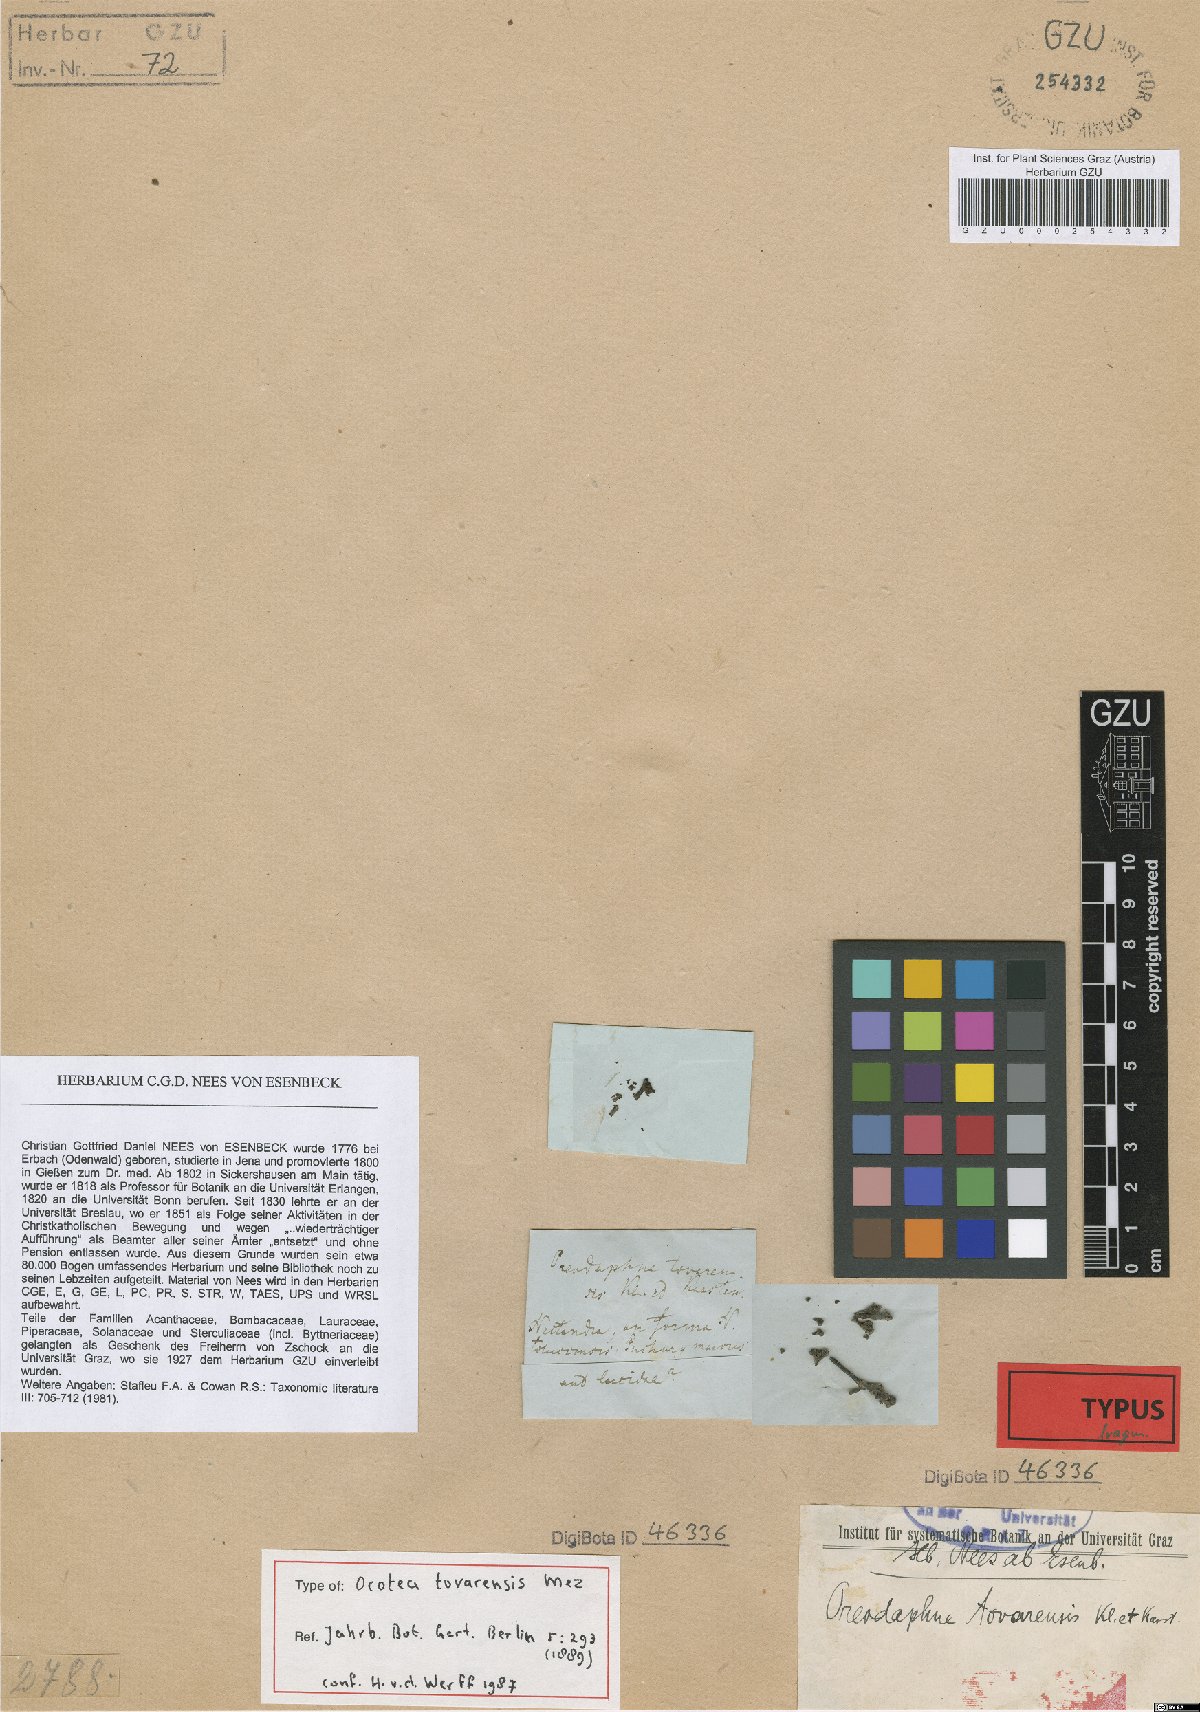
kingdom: Plantae
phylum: Tracheophyta
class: Magnoliopsida
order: Laurales
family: Lauraceae
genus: Ocotea
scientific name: Ocotea tovarensis
